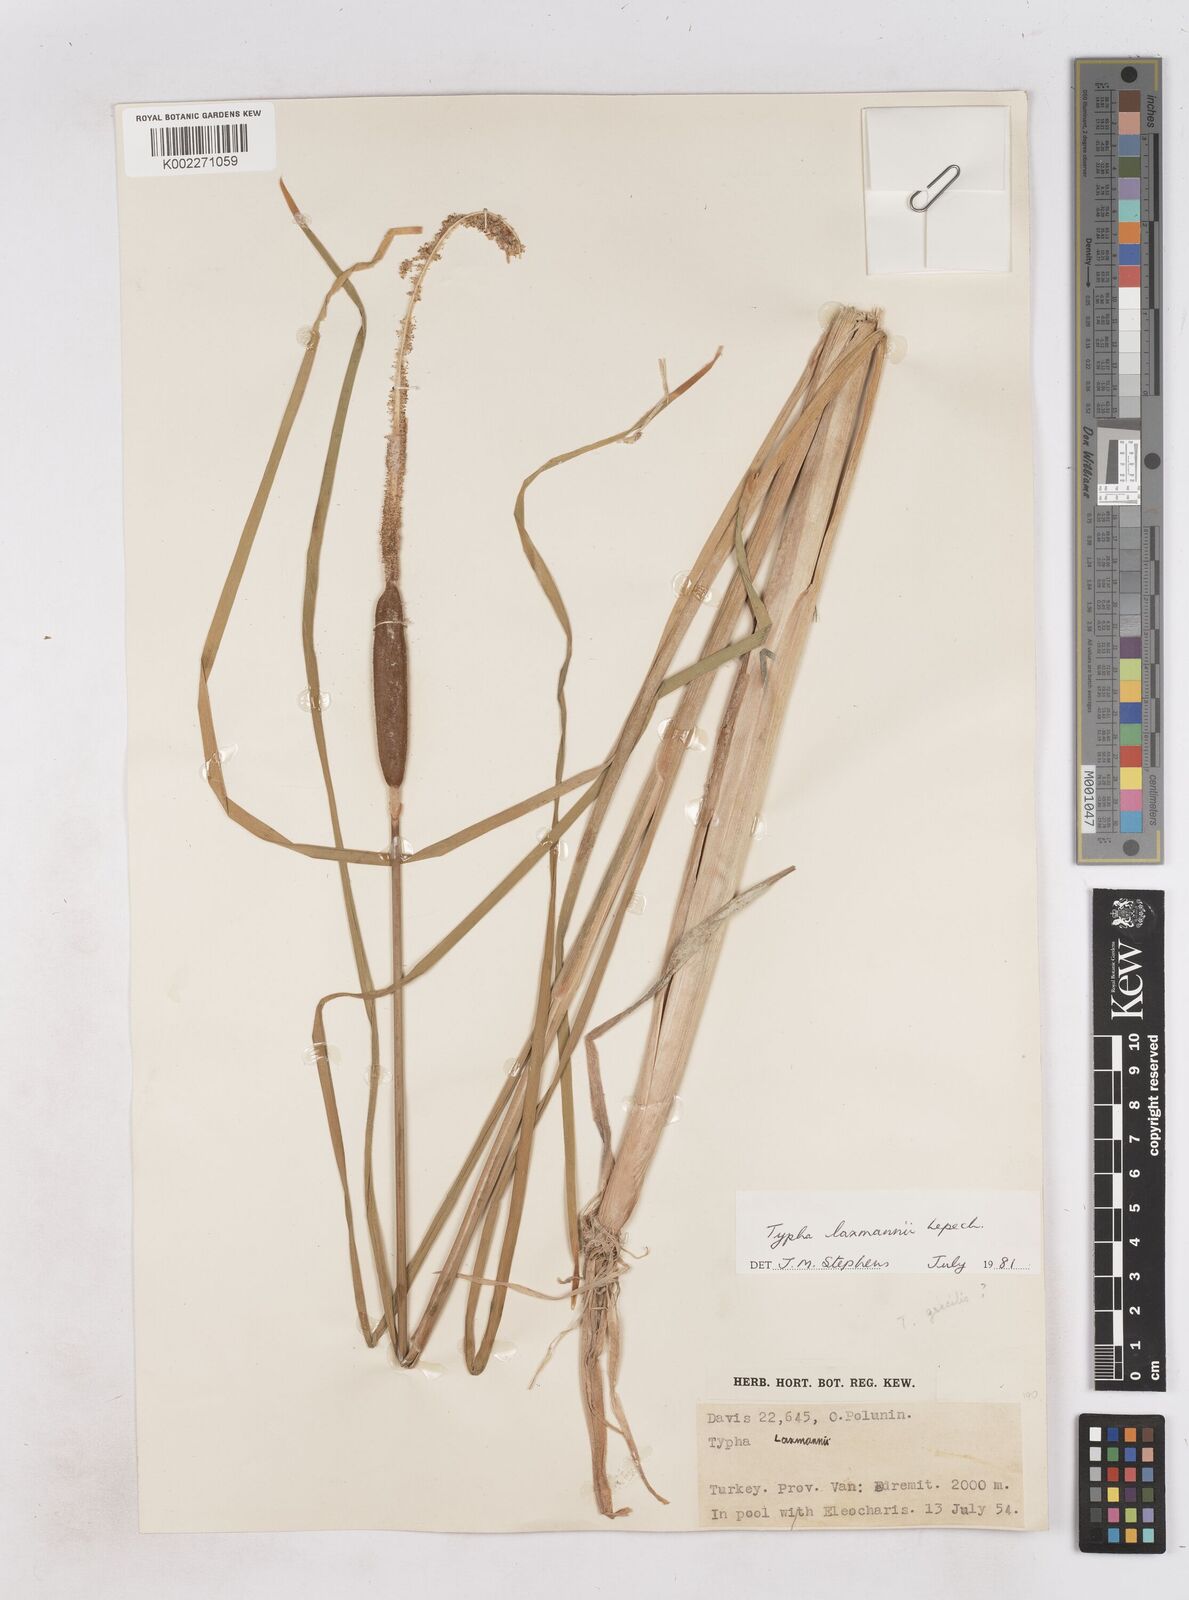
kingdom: Plantae
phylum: Tracheophyta
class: Liliopsida
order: Poales
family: Typhaceae
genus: Typha
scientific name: Typha laxmannii
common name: Laxman’s bulrush
